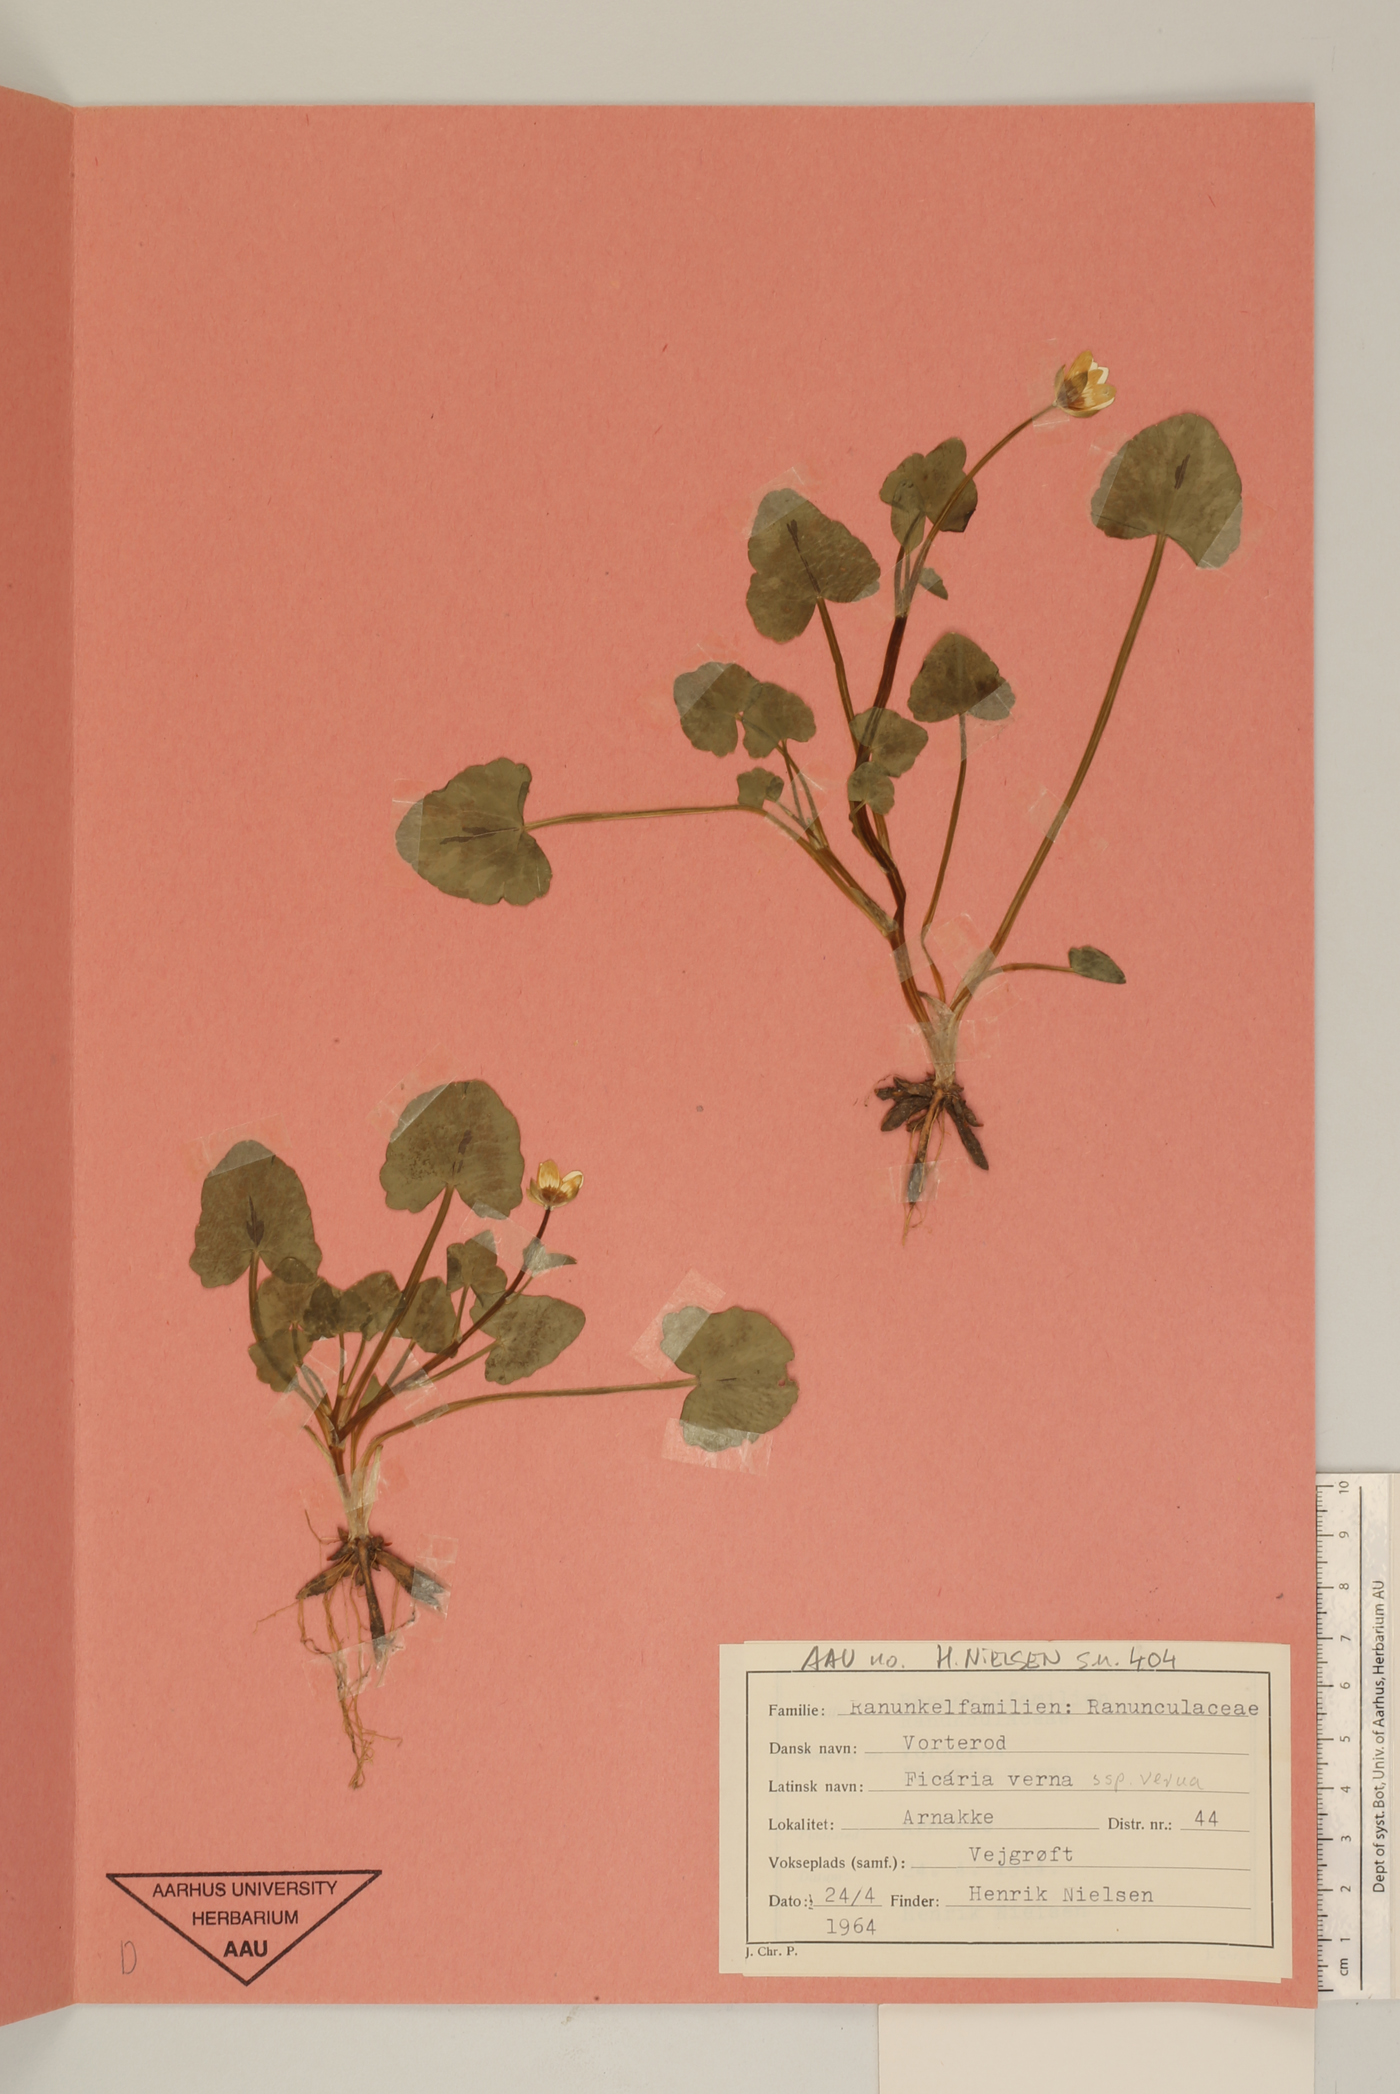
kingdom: Plantae
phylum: Tracheophyta
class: Magnoliopsida
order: Ranunculales
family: Ranunculaceae
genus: Ficaria
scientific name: Ficaria verna
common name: Lesser celandine
